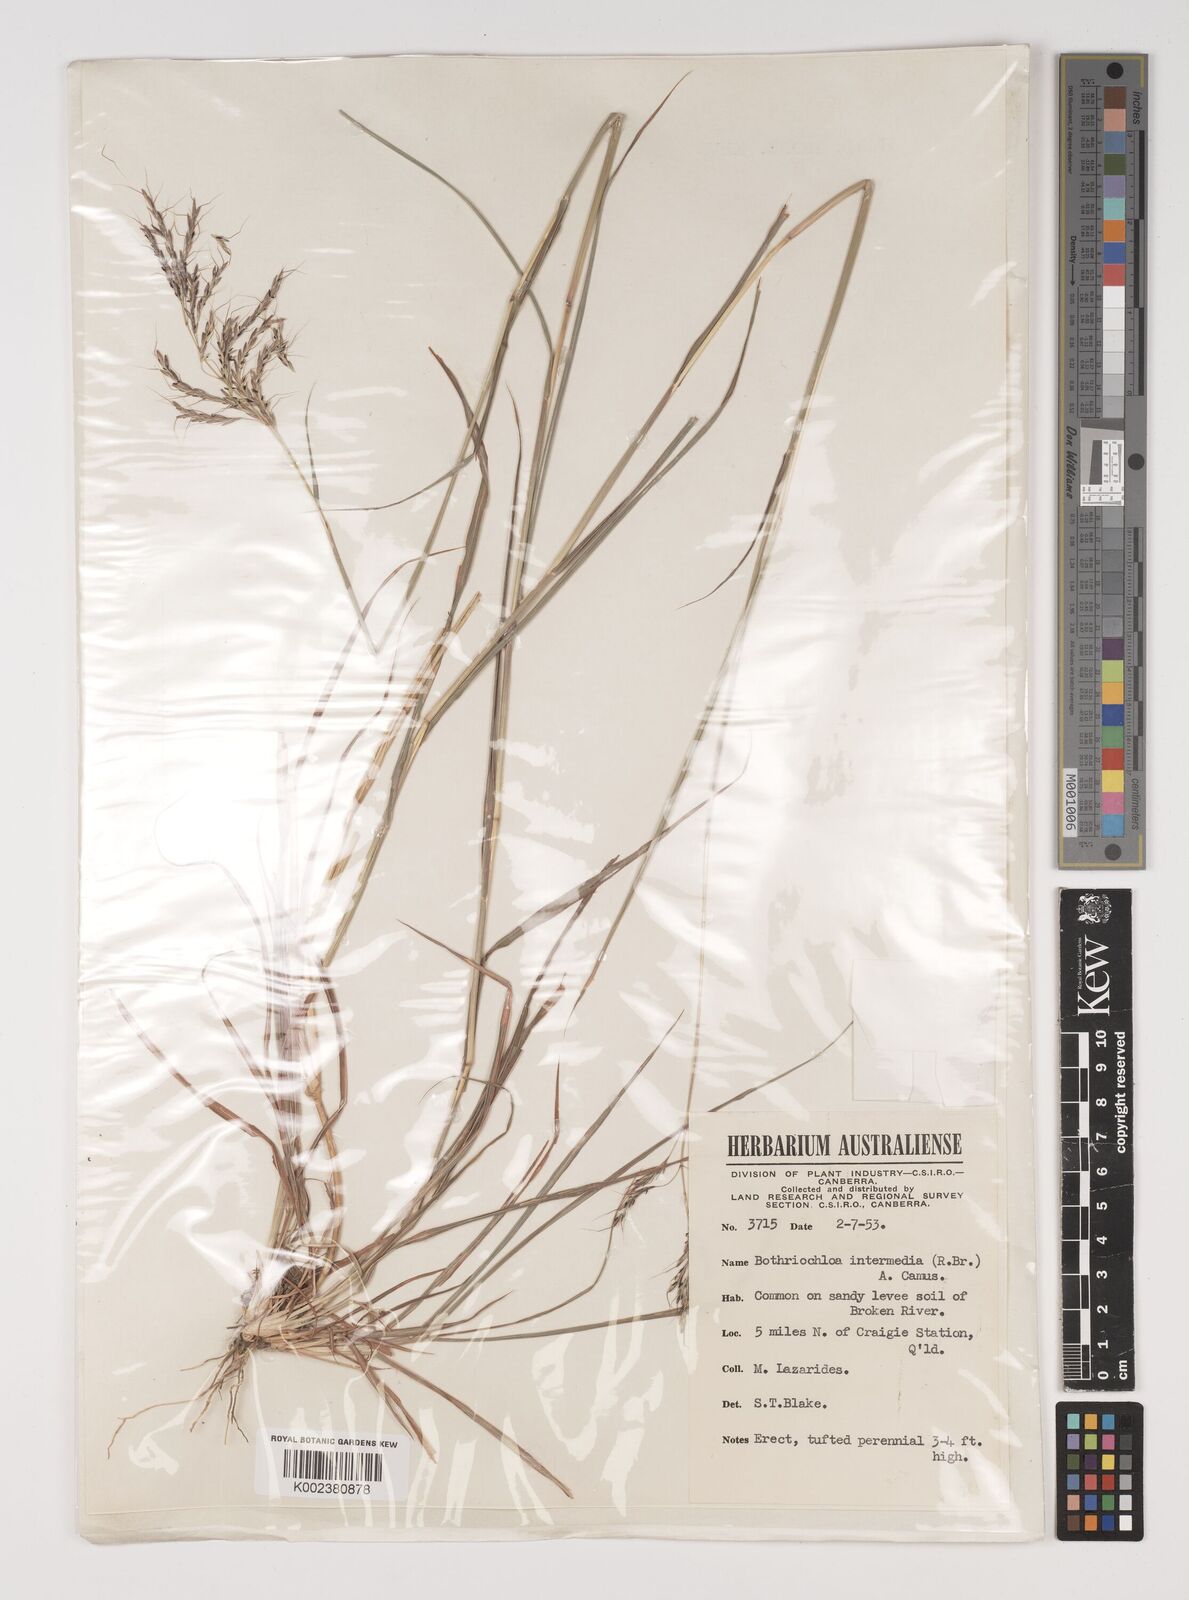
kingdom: Plantae
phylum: Tracheophyta
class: Liliopsida
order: Poales
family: Poaceae
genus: Bothriochloa
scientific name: Bothriochloa bladhii
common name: Caucasian bluestem
